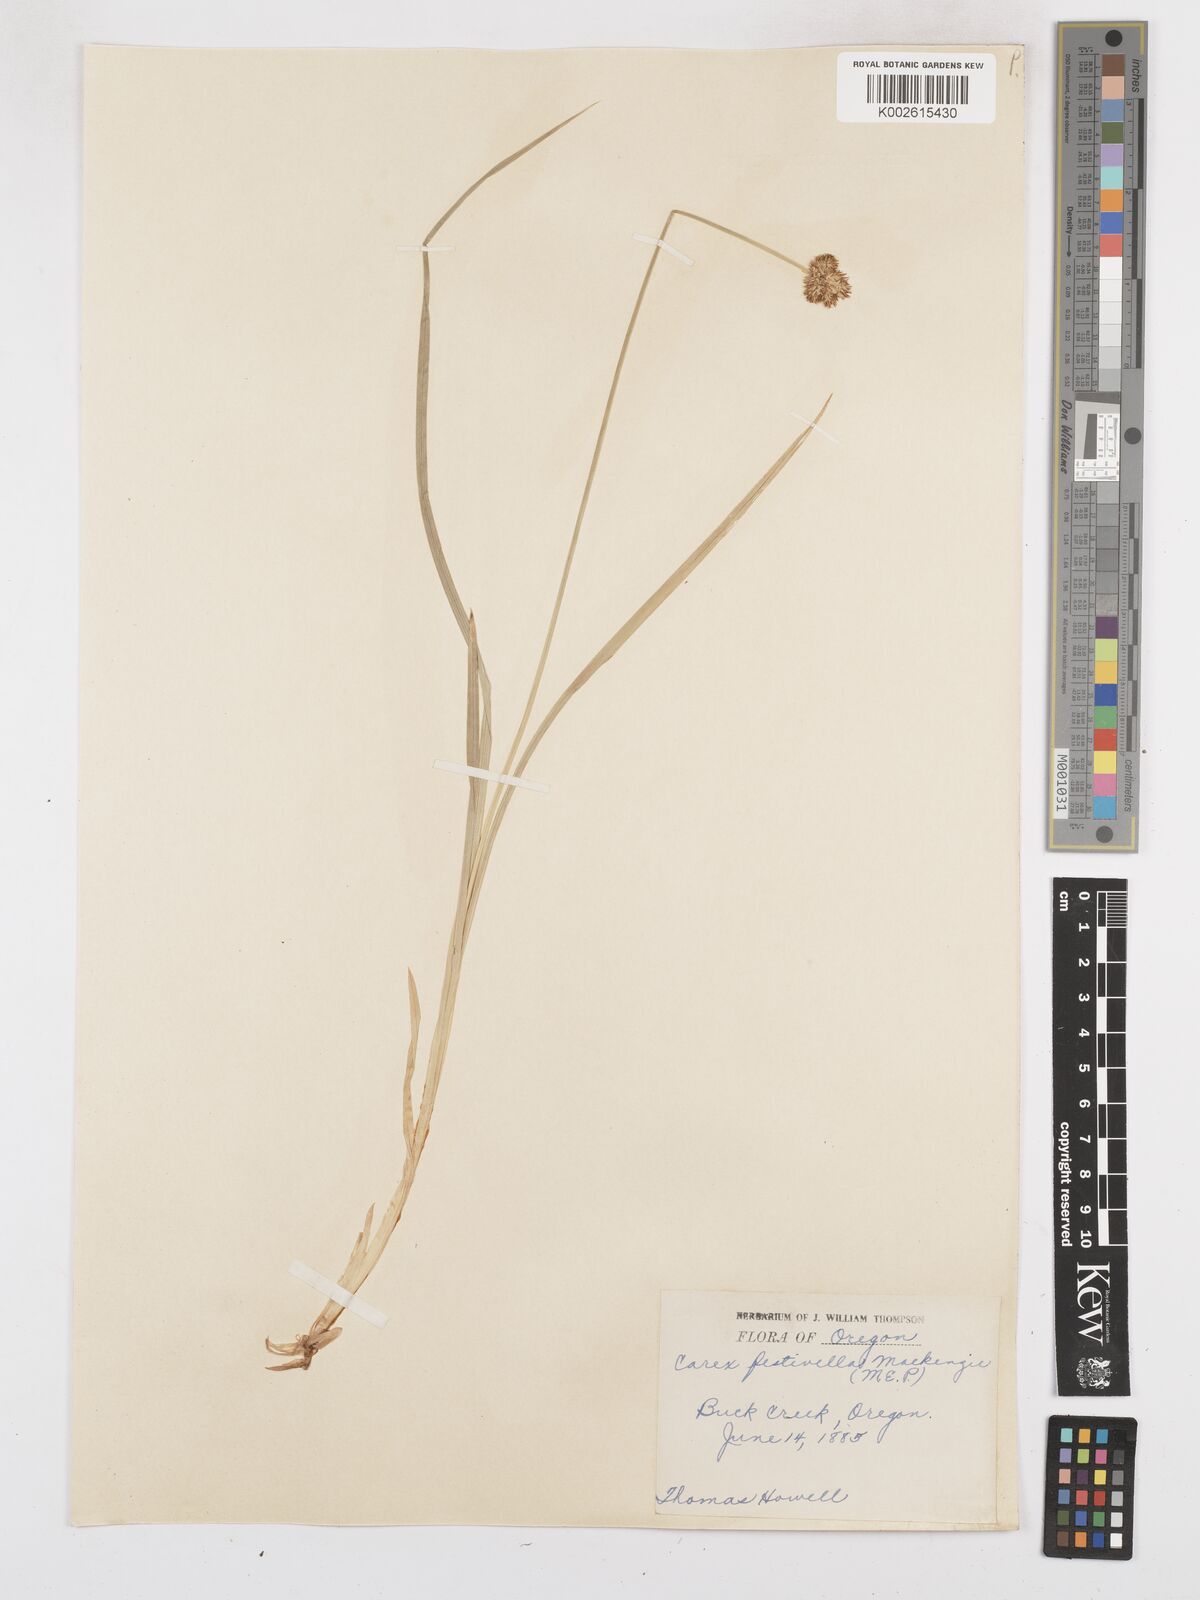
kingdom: Plantae
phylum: Tracheophyta
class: Liliopsida
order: Poales
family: Cyperaceae
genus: Carex
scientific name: Carex microptera
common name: Oval-headed sedge
